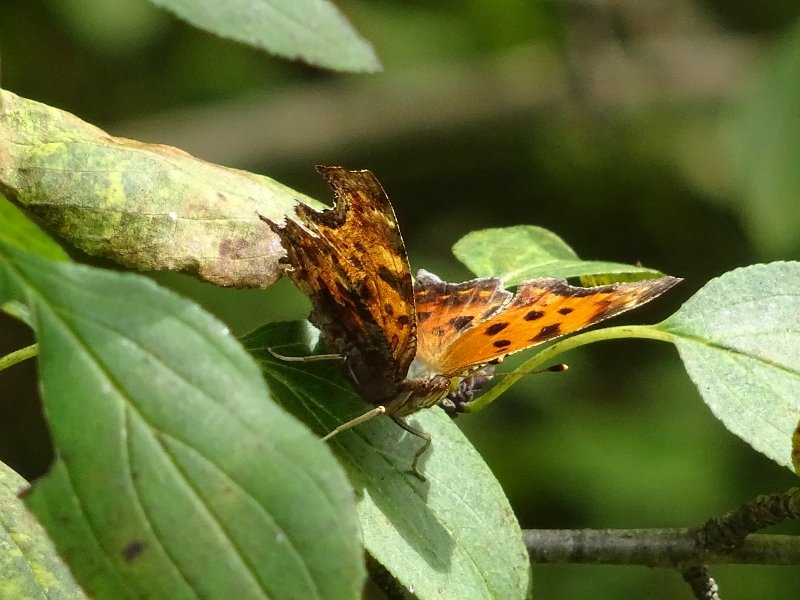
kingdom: Animalia
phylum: Arthropoda
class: Insecta
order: Lepidoptera
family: Nymphalidae
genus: Polygonia
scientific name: Polygonia comma
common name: Eastern Comma
